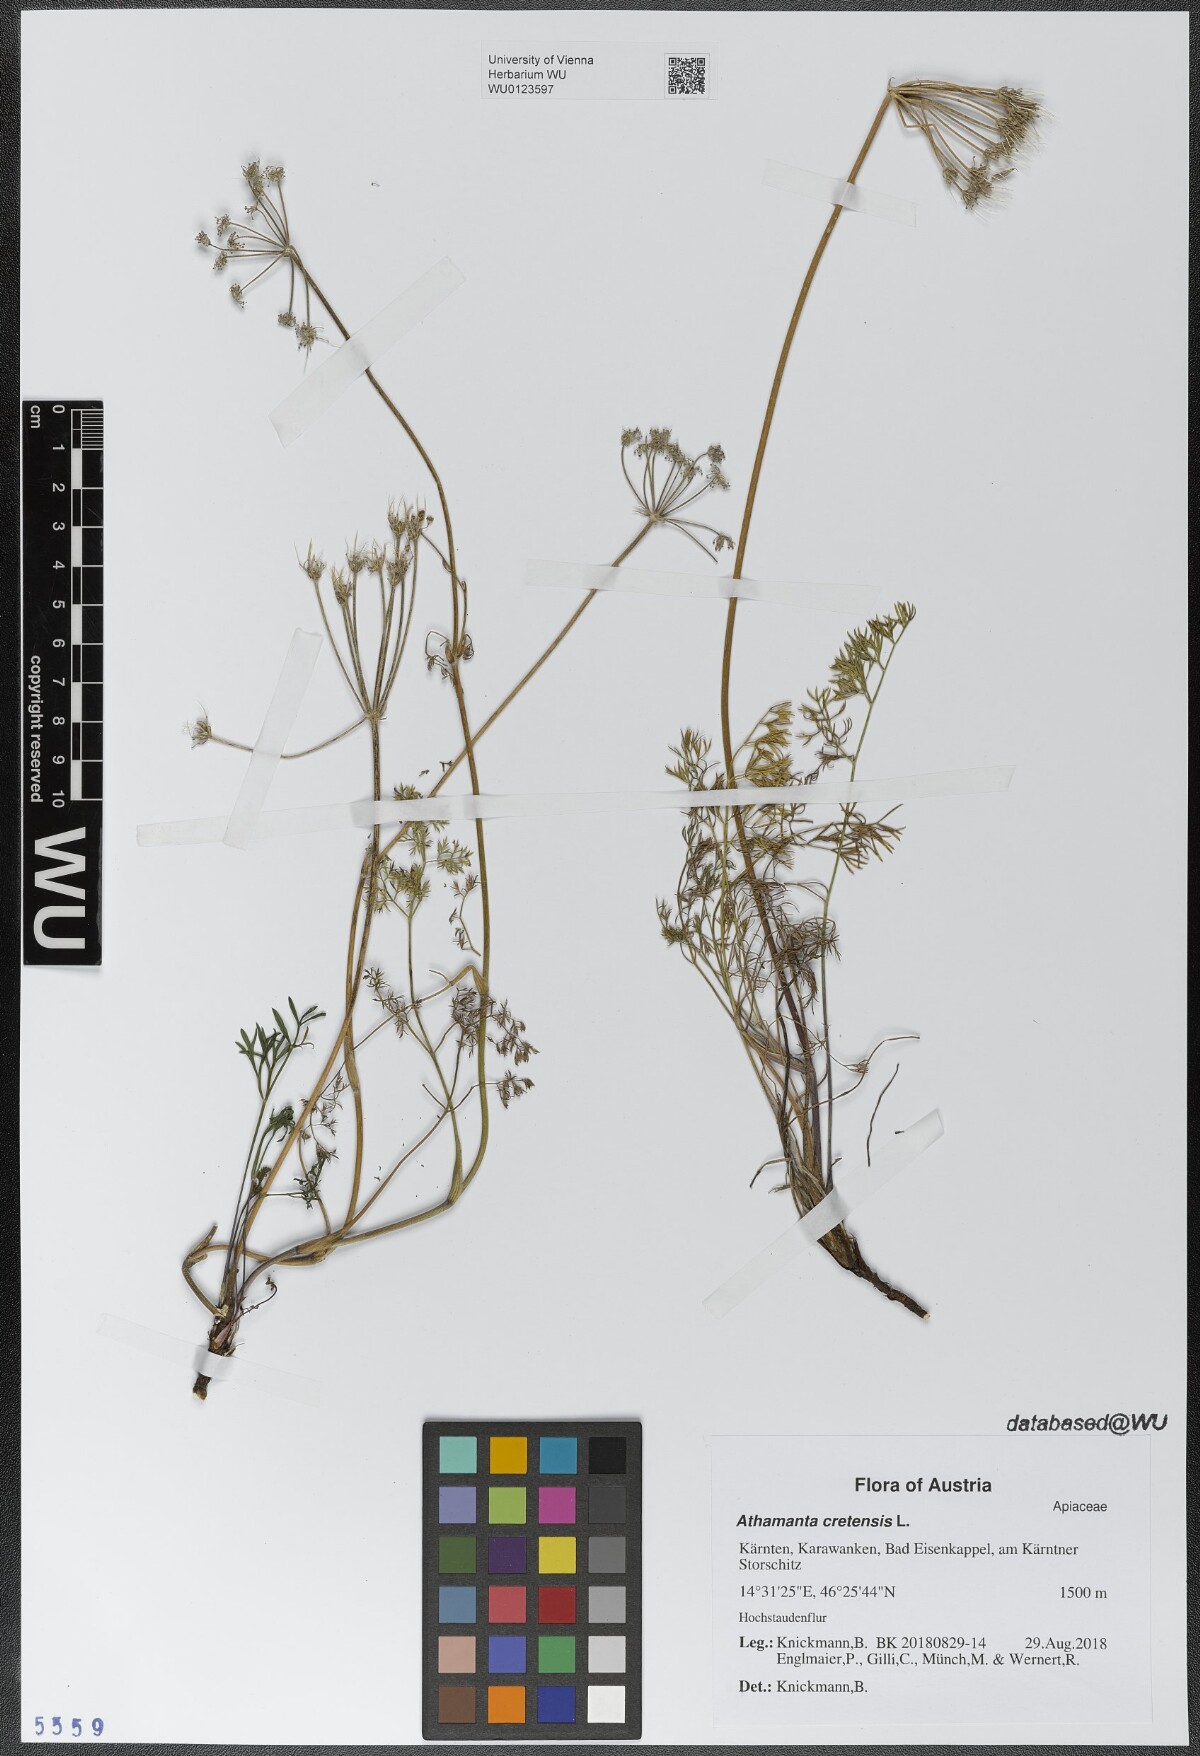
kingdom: Plantae
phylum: Tracheophyta
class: Magnoliopsida
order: Apiales
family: Apiaceae
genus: Athamanta
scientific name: Athamanta cretensis
